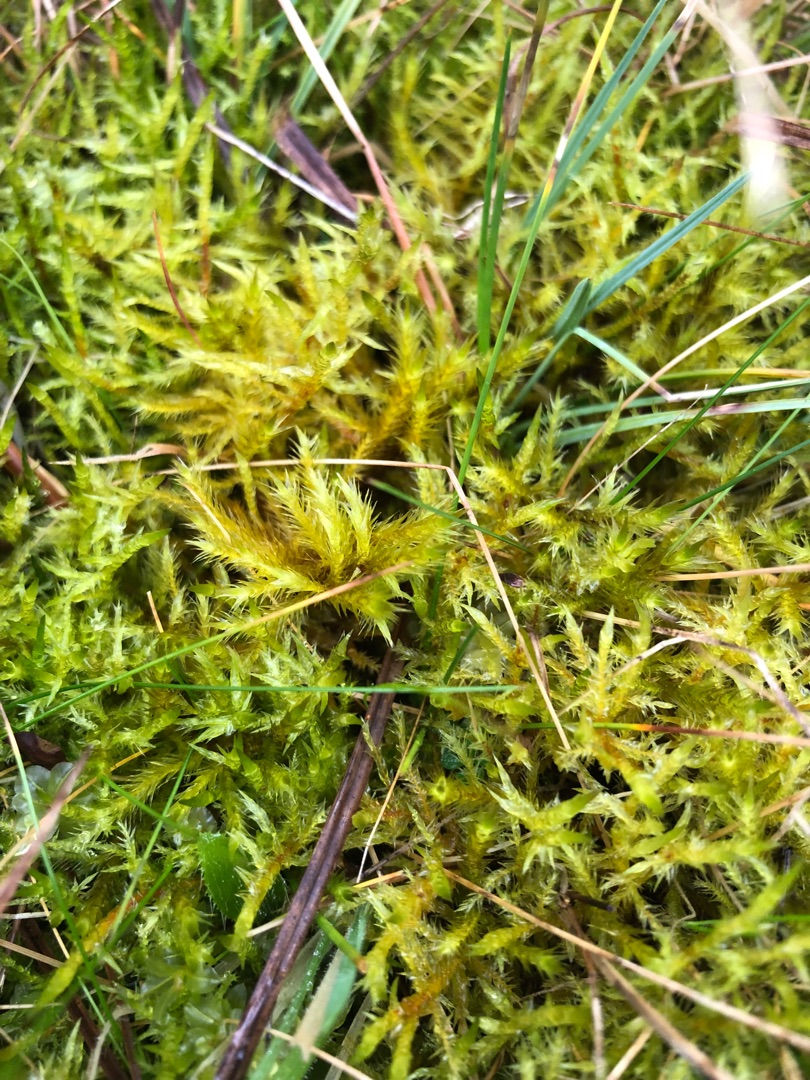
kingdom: Plantae
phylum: Bryophyta
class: Bryopsida
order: Hypnales
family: Amblystegiaceae
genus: Tomentypnum
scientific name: Tomentypnum nitens
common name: Glinsende kærmos
